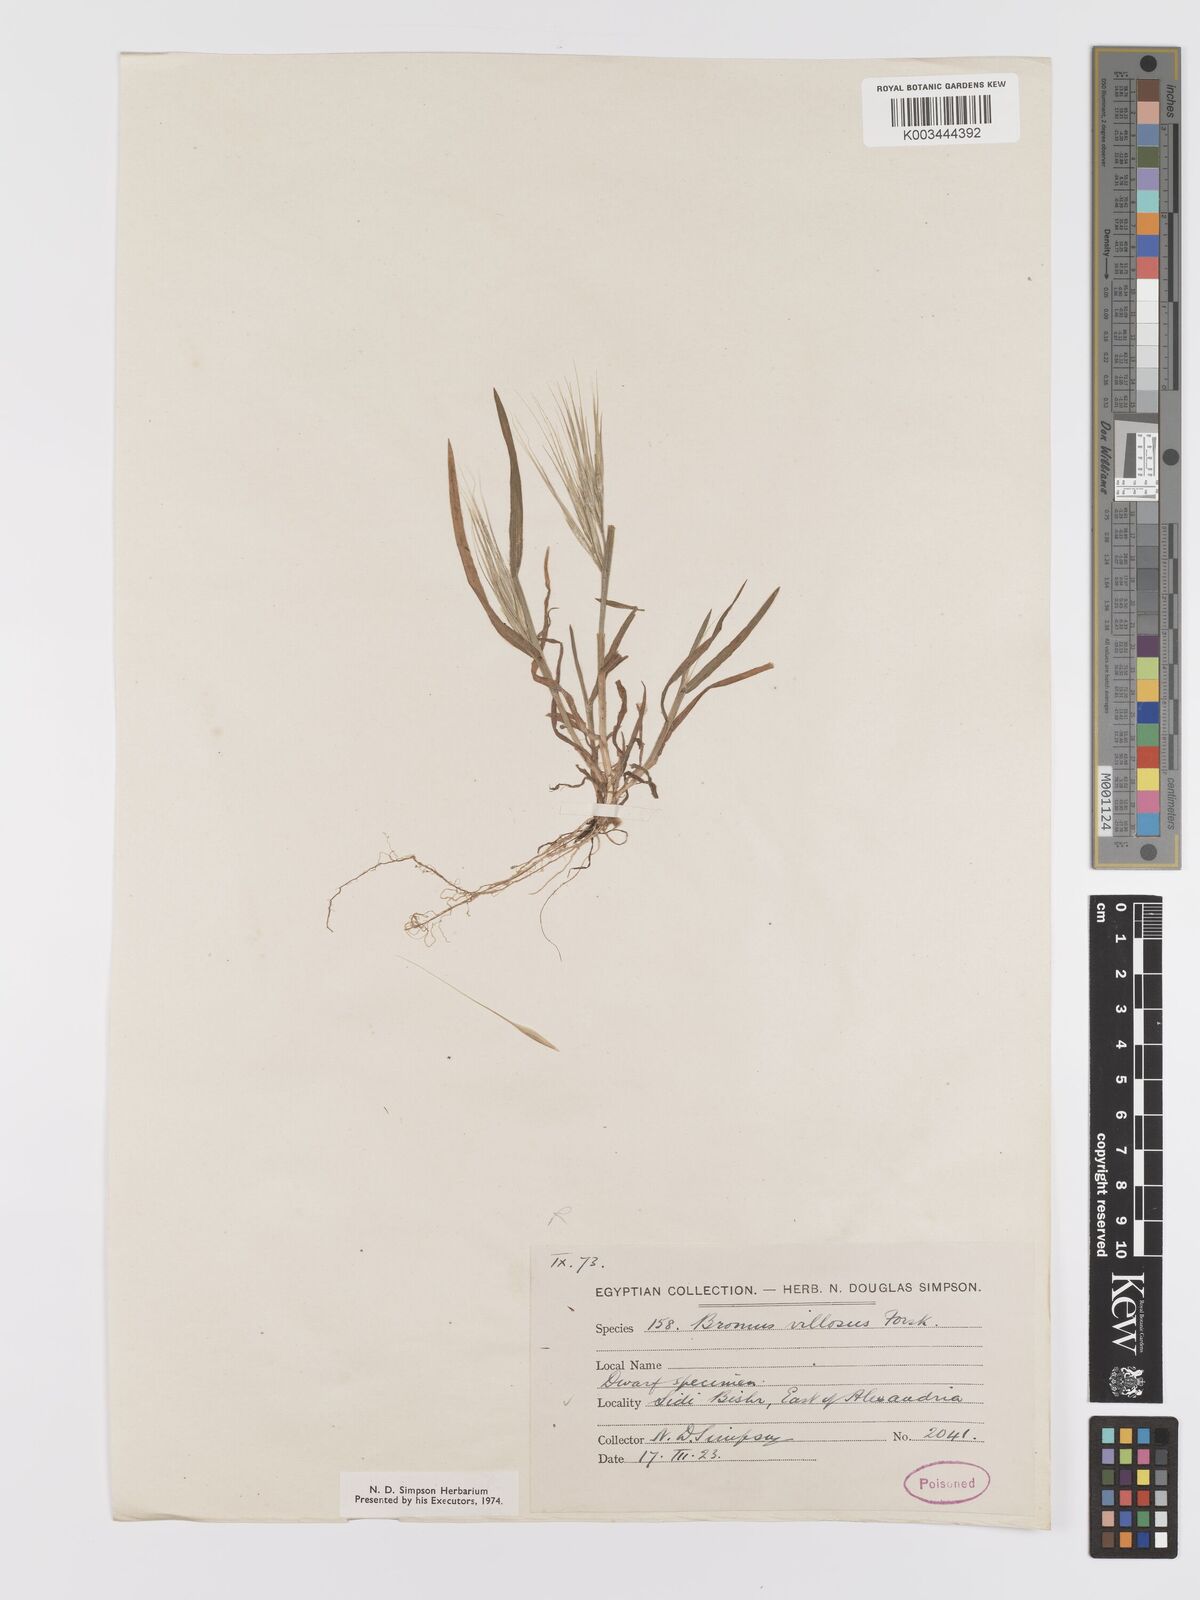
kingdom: Plantae
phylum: Tracheophyta
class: Liliopsida
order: Poales
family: Poaceae
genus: Bromus
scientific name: Bromus
